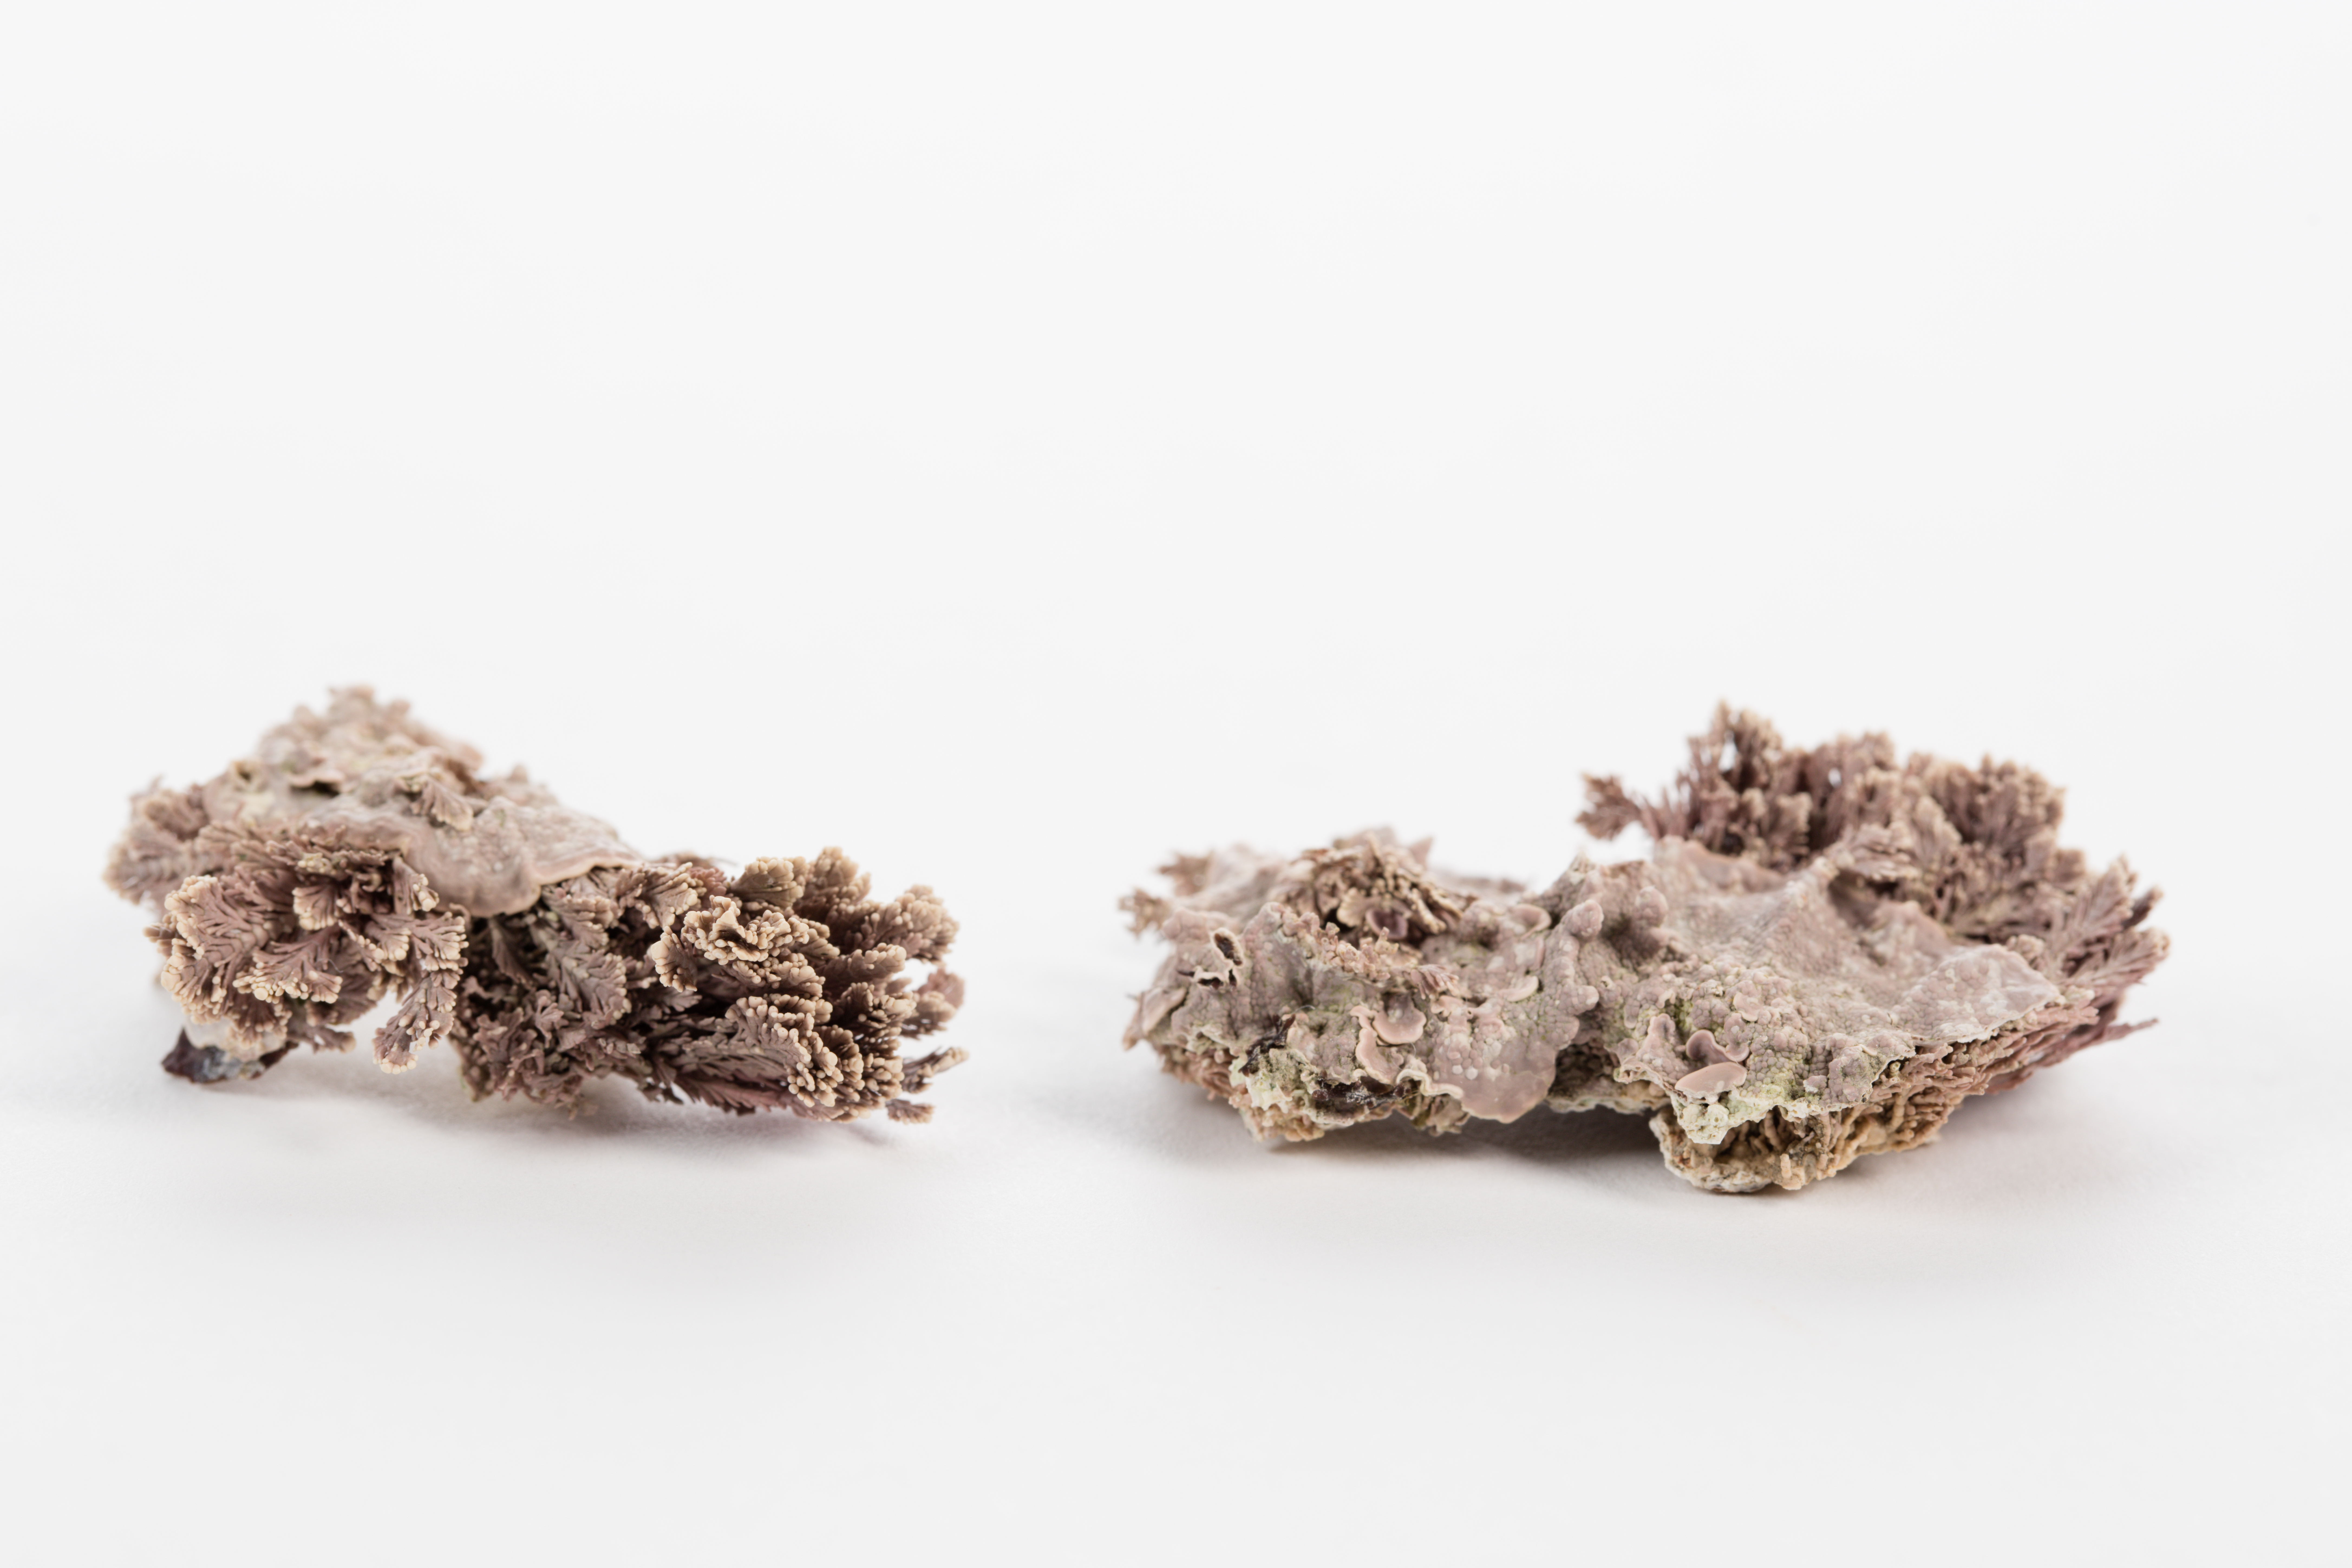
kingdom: Plantae
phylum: Rhodophyta
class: Florideophyceae
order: Corallinales
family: Hapalidiaceae
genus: Synarthrophyton
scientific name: Synarthrophyton patena
